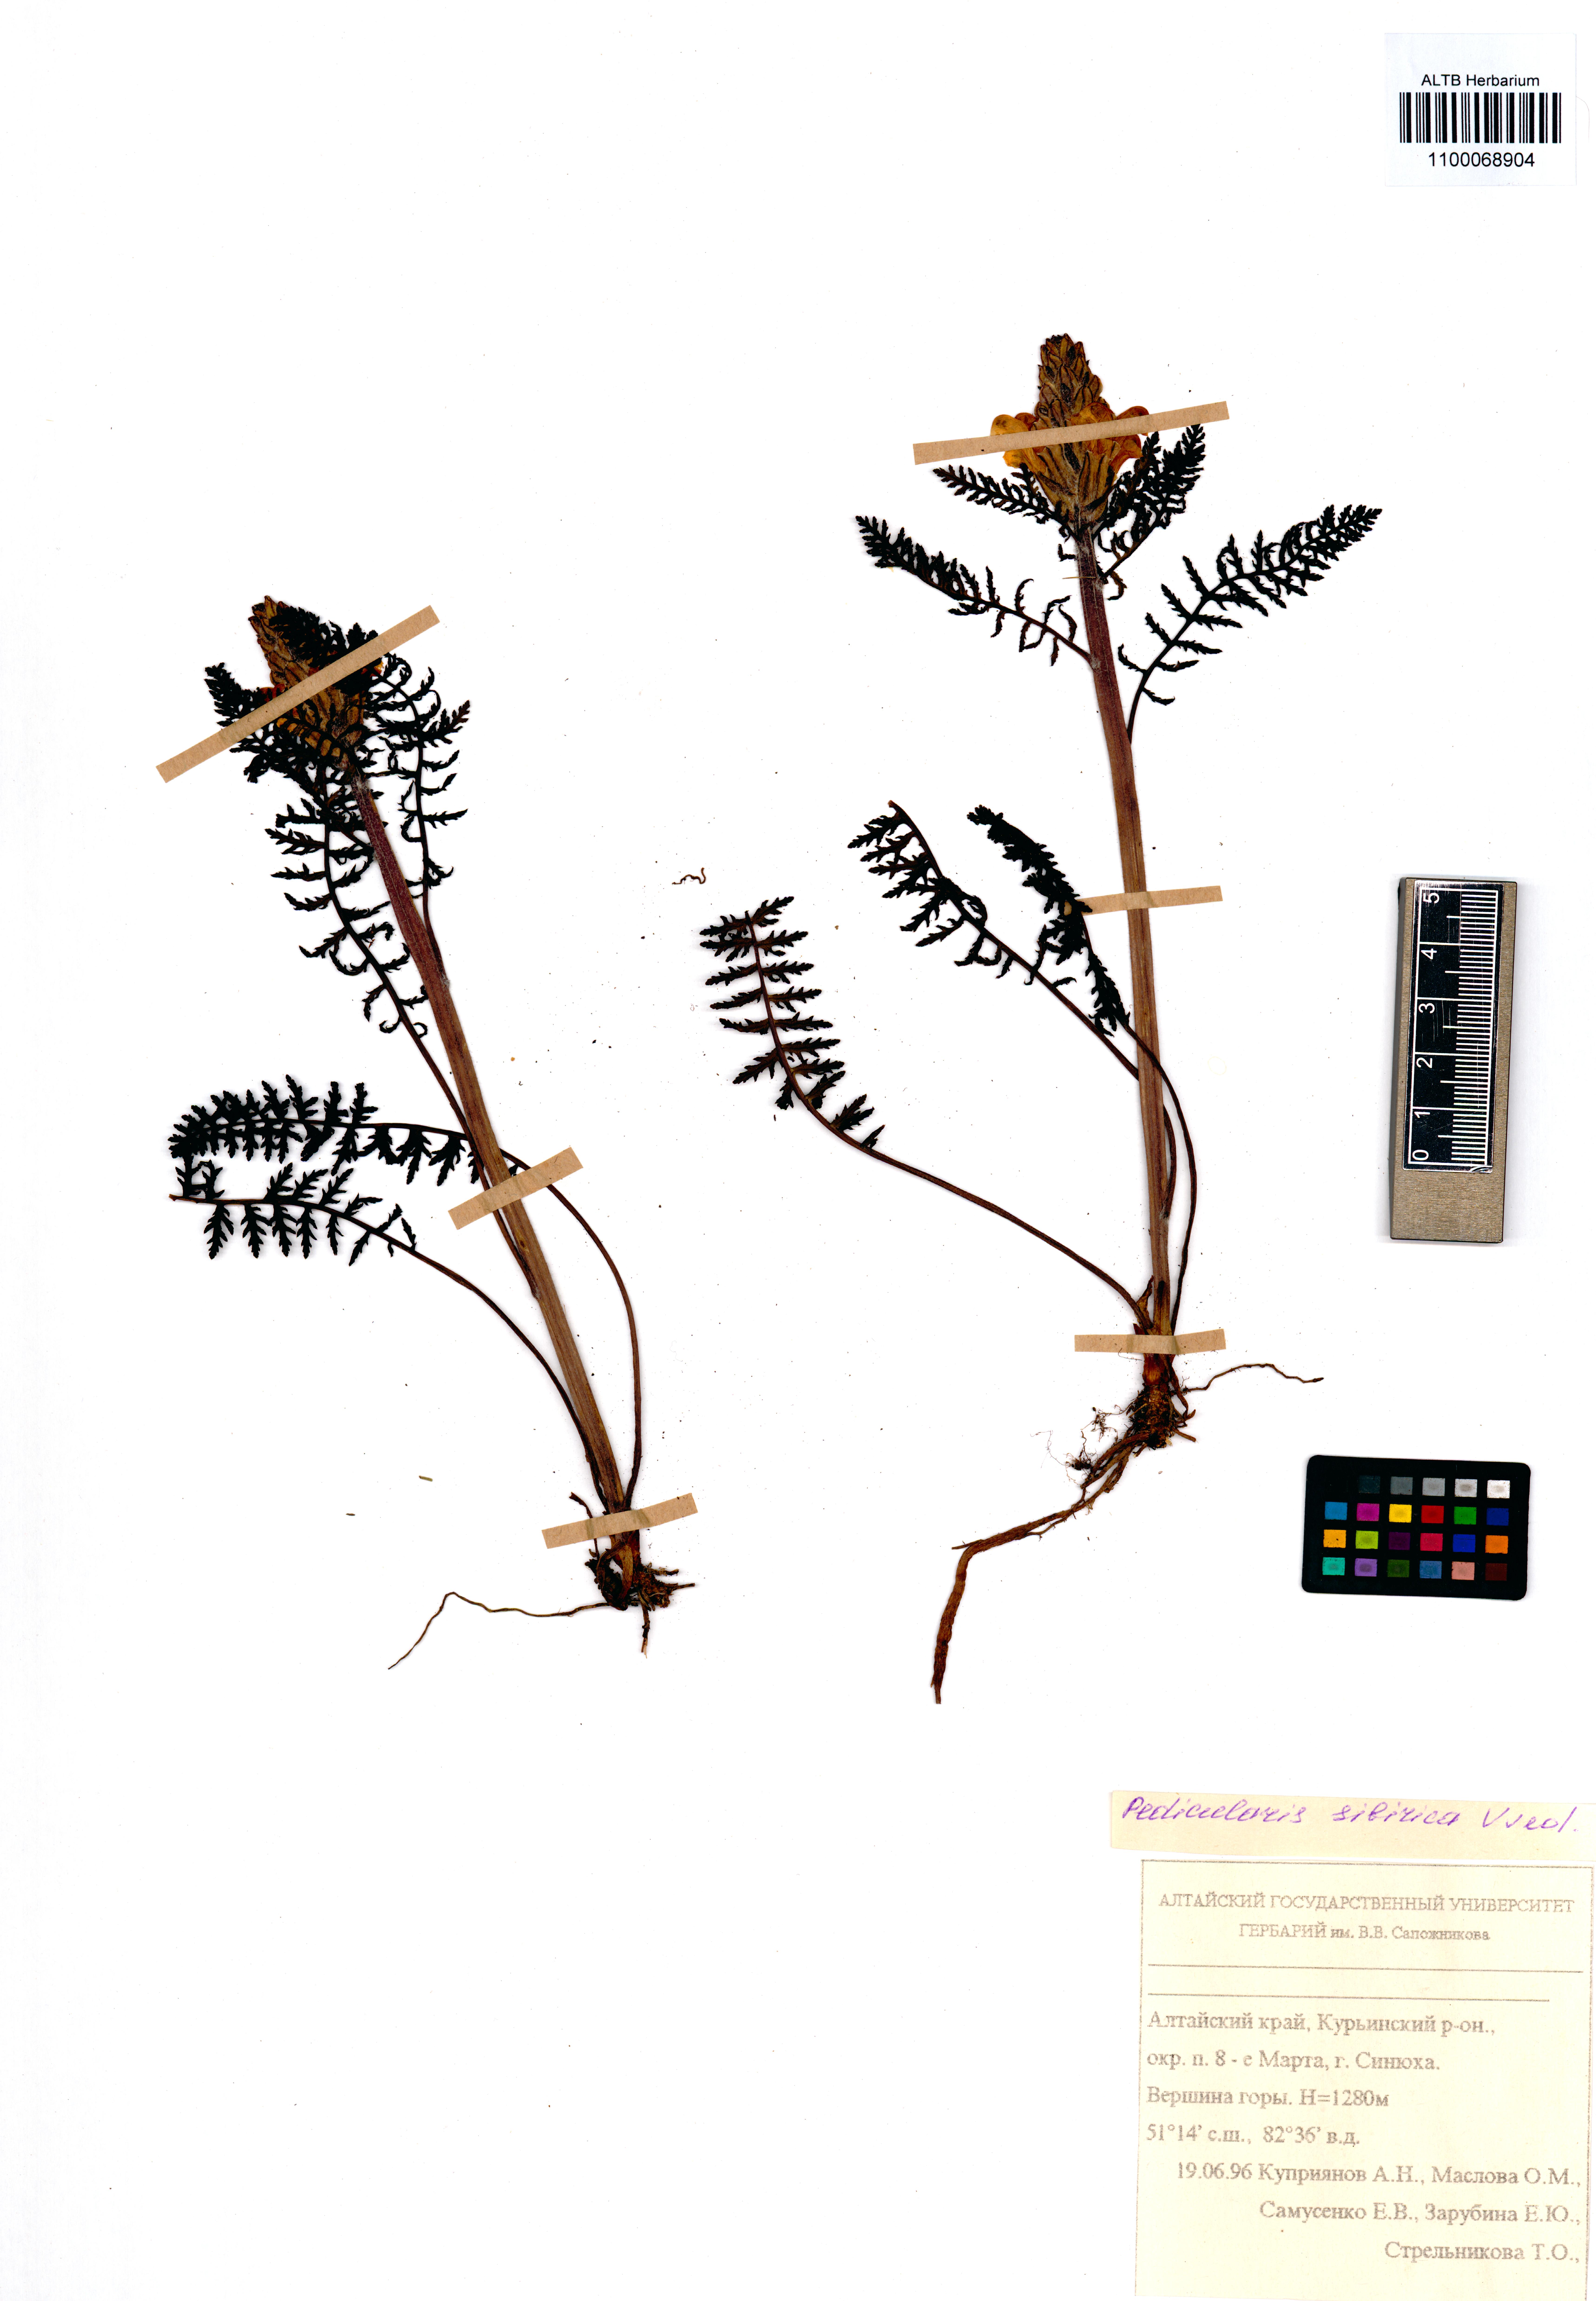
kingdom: Plantae
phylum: Tracheophyta
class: Magnoliopsida
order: Lamiales
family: Orobanchaceae
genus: Pedicularis
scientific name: Pedicularis sibirica
